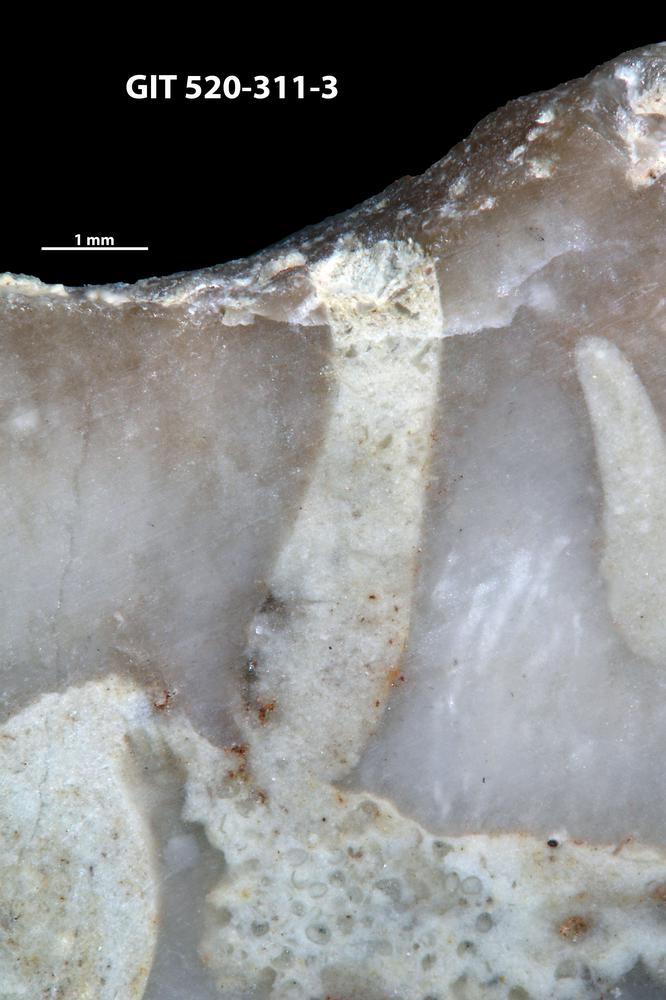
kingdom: Animalia
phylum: Sipuncula
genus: Trypanites
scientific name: Trypanites
